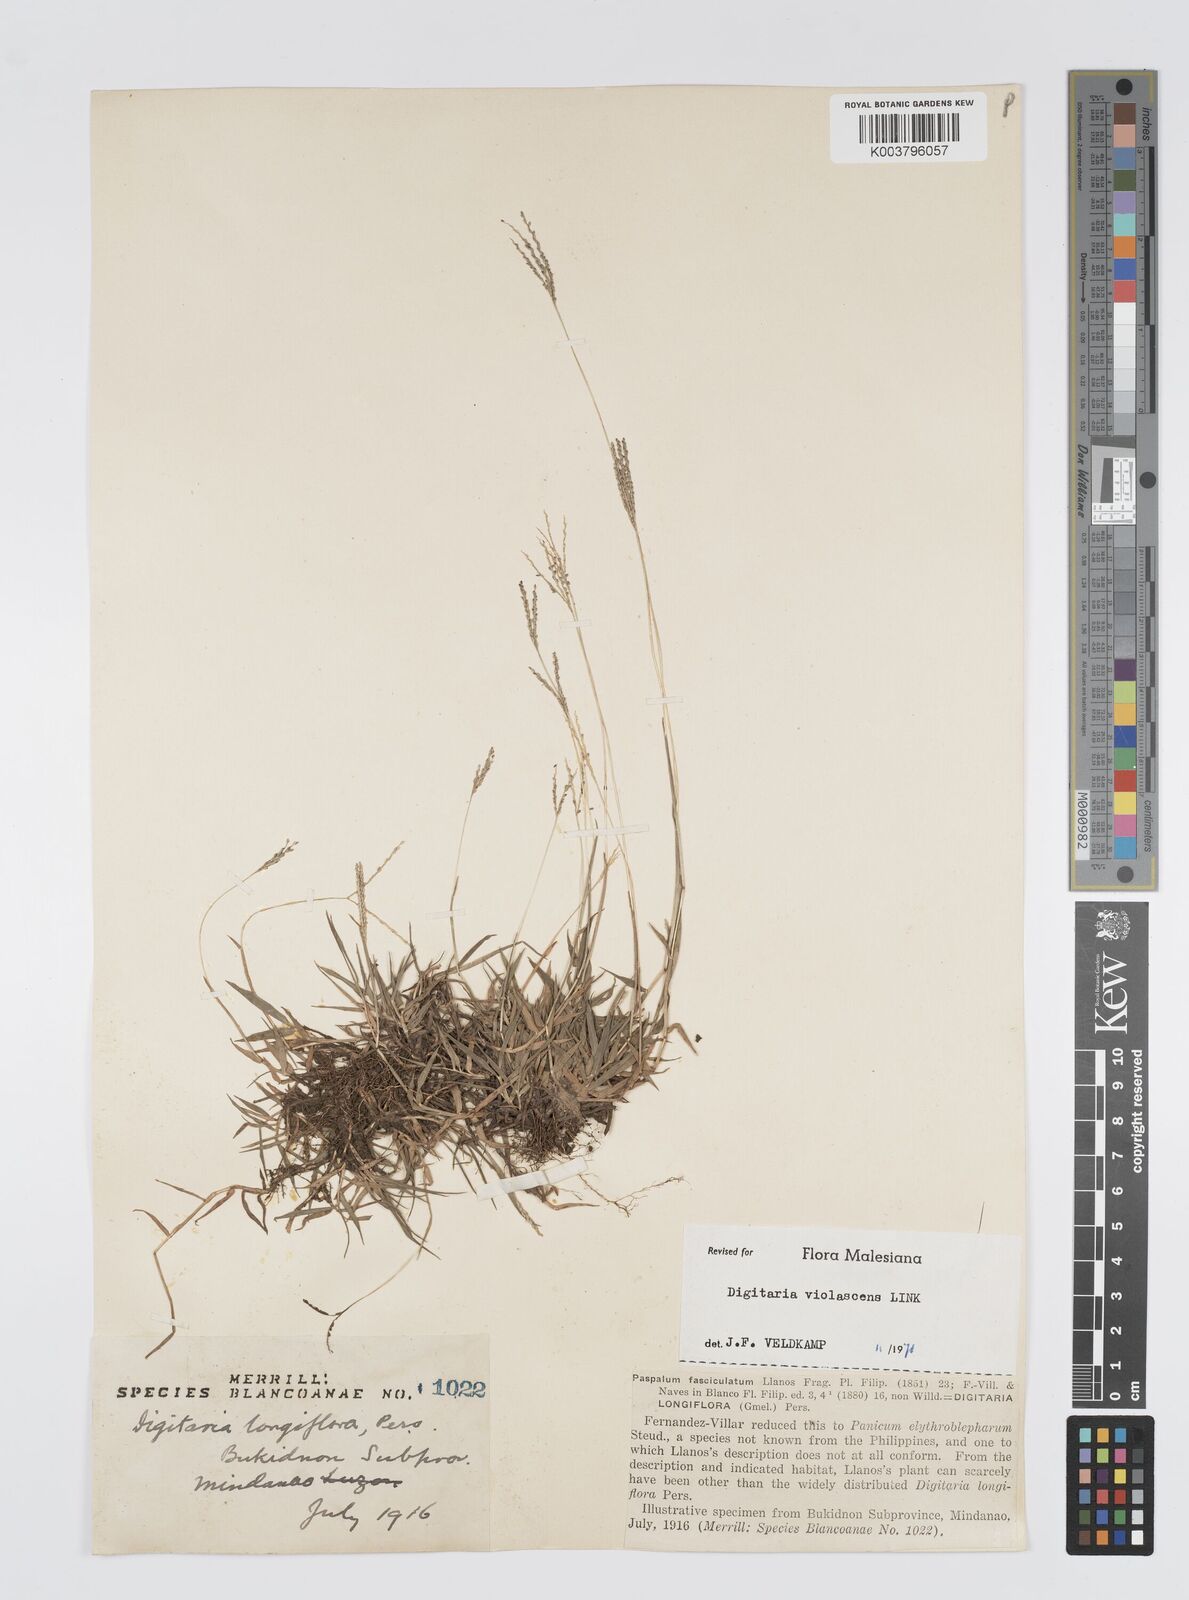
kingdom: Plantae
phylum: Tracheophyta
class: Liliopsida
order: Poales
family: Poaceae
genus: Digitaria
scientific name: Digitaria violascens
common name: Violet crabgrass
